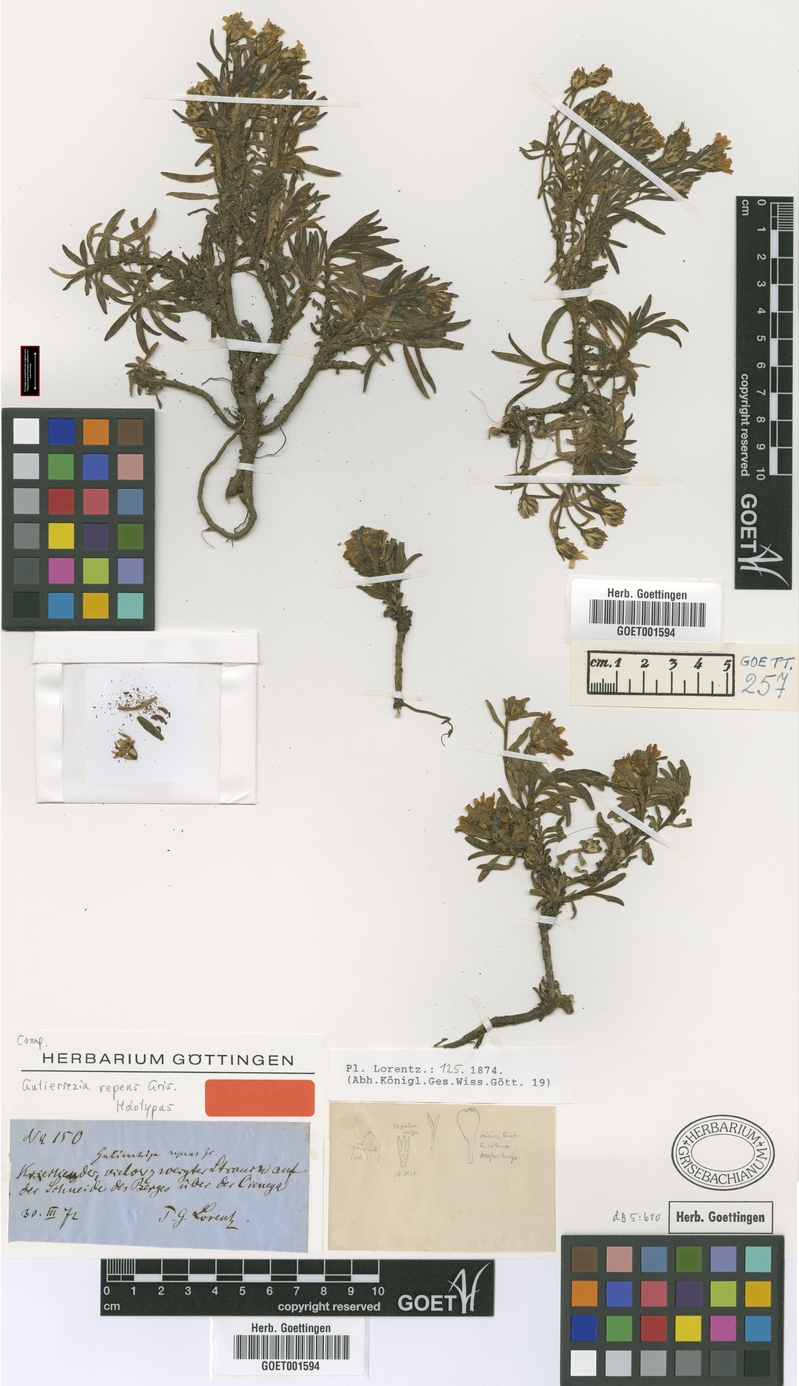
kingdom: Plantae
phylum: Tracheophyta
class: Magnoliopsida
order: Asterales
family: Asteraceae
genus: Gutierrezia
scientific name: Gutierrezia repens
